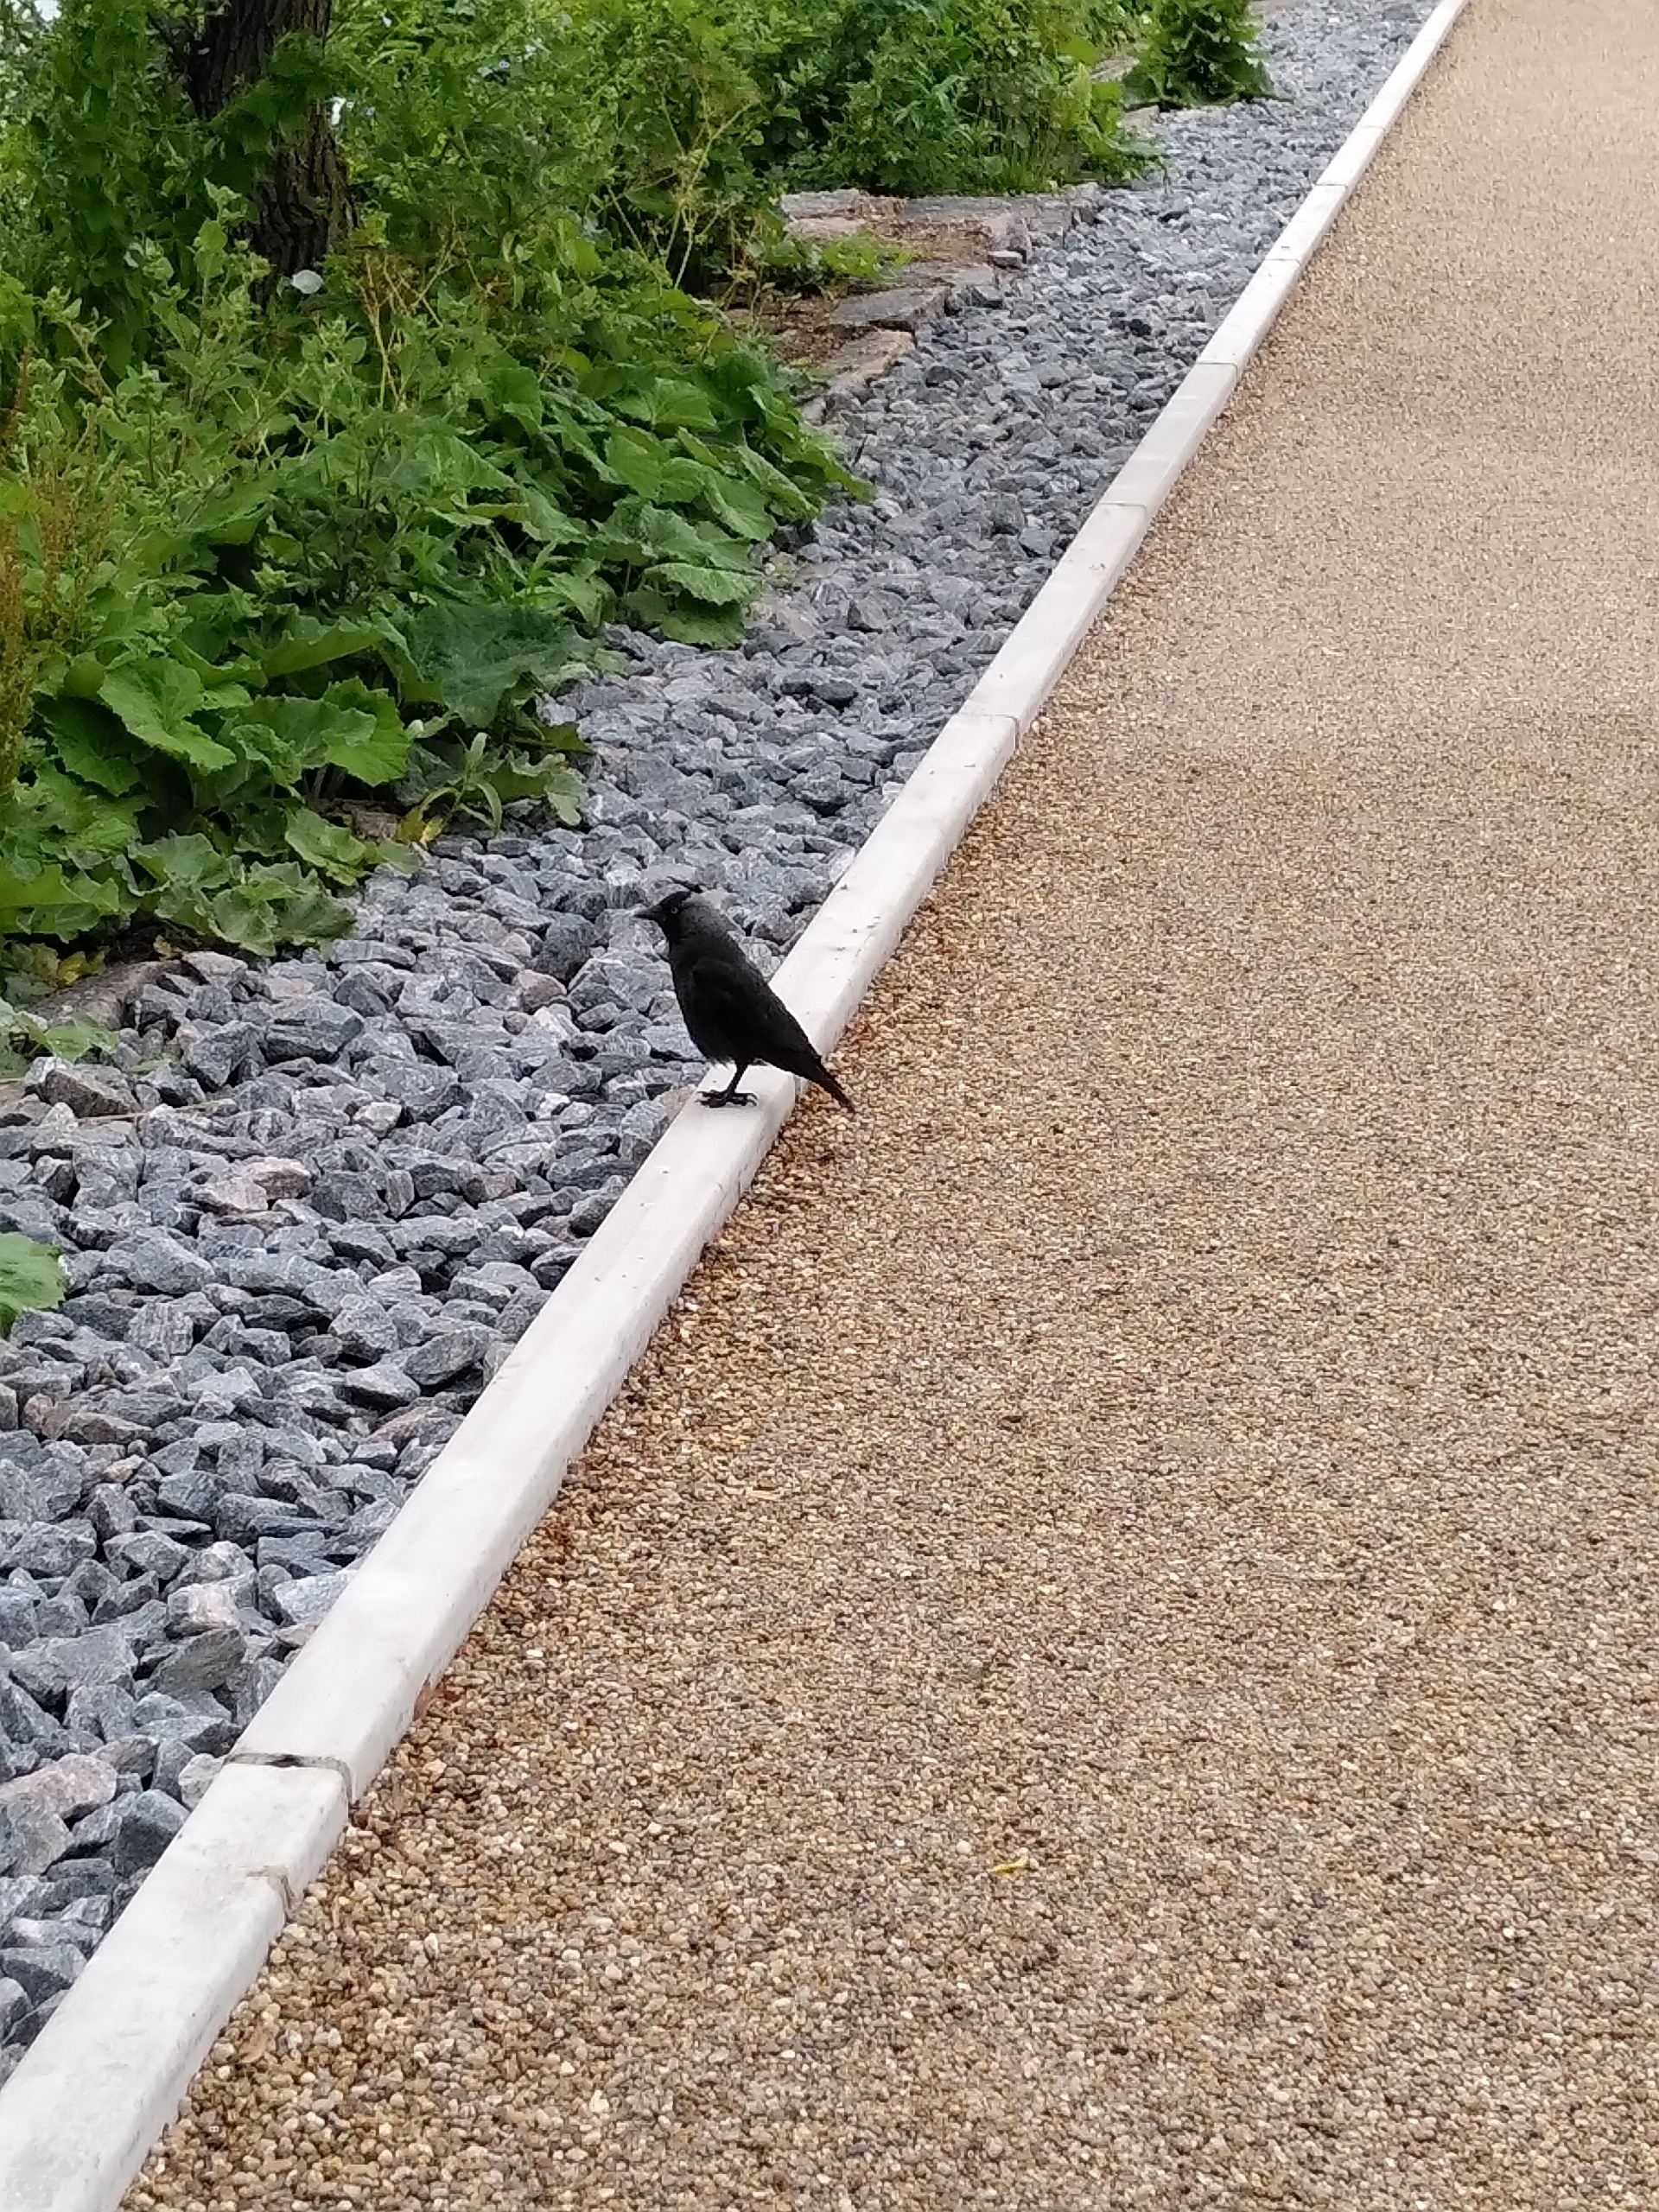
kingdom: Animalia
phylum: Chordata
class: Aves
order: Passeriformes
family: Corvidae
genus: Coloeus
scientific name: Coloeus monedula
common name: Allike
